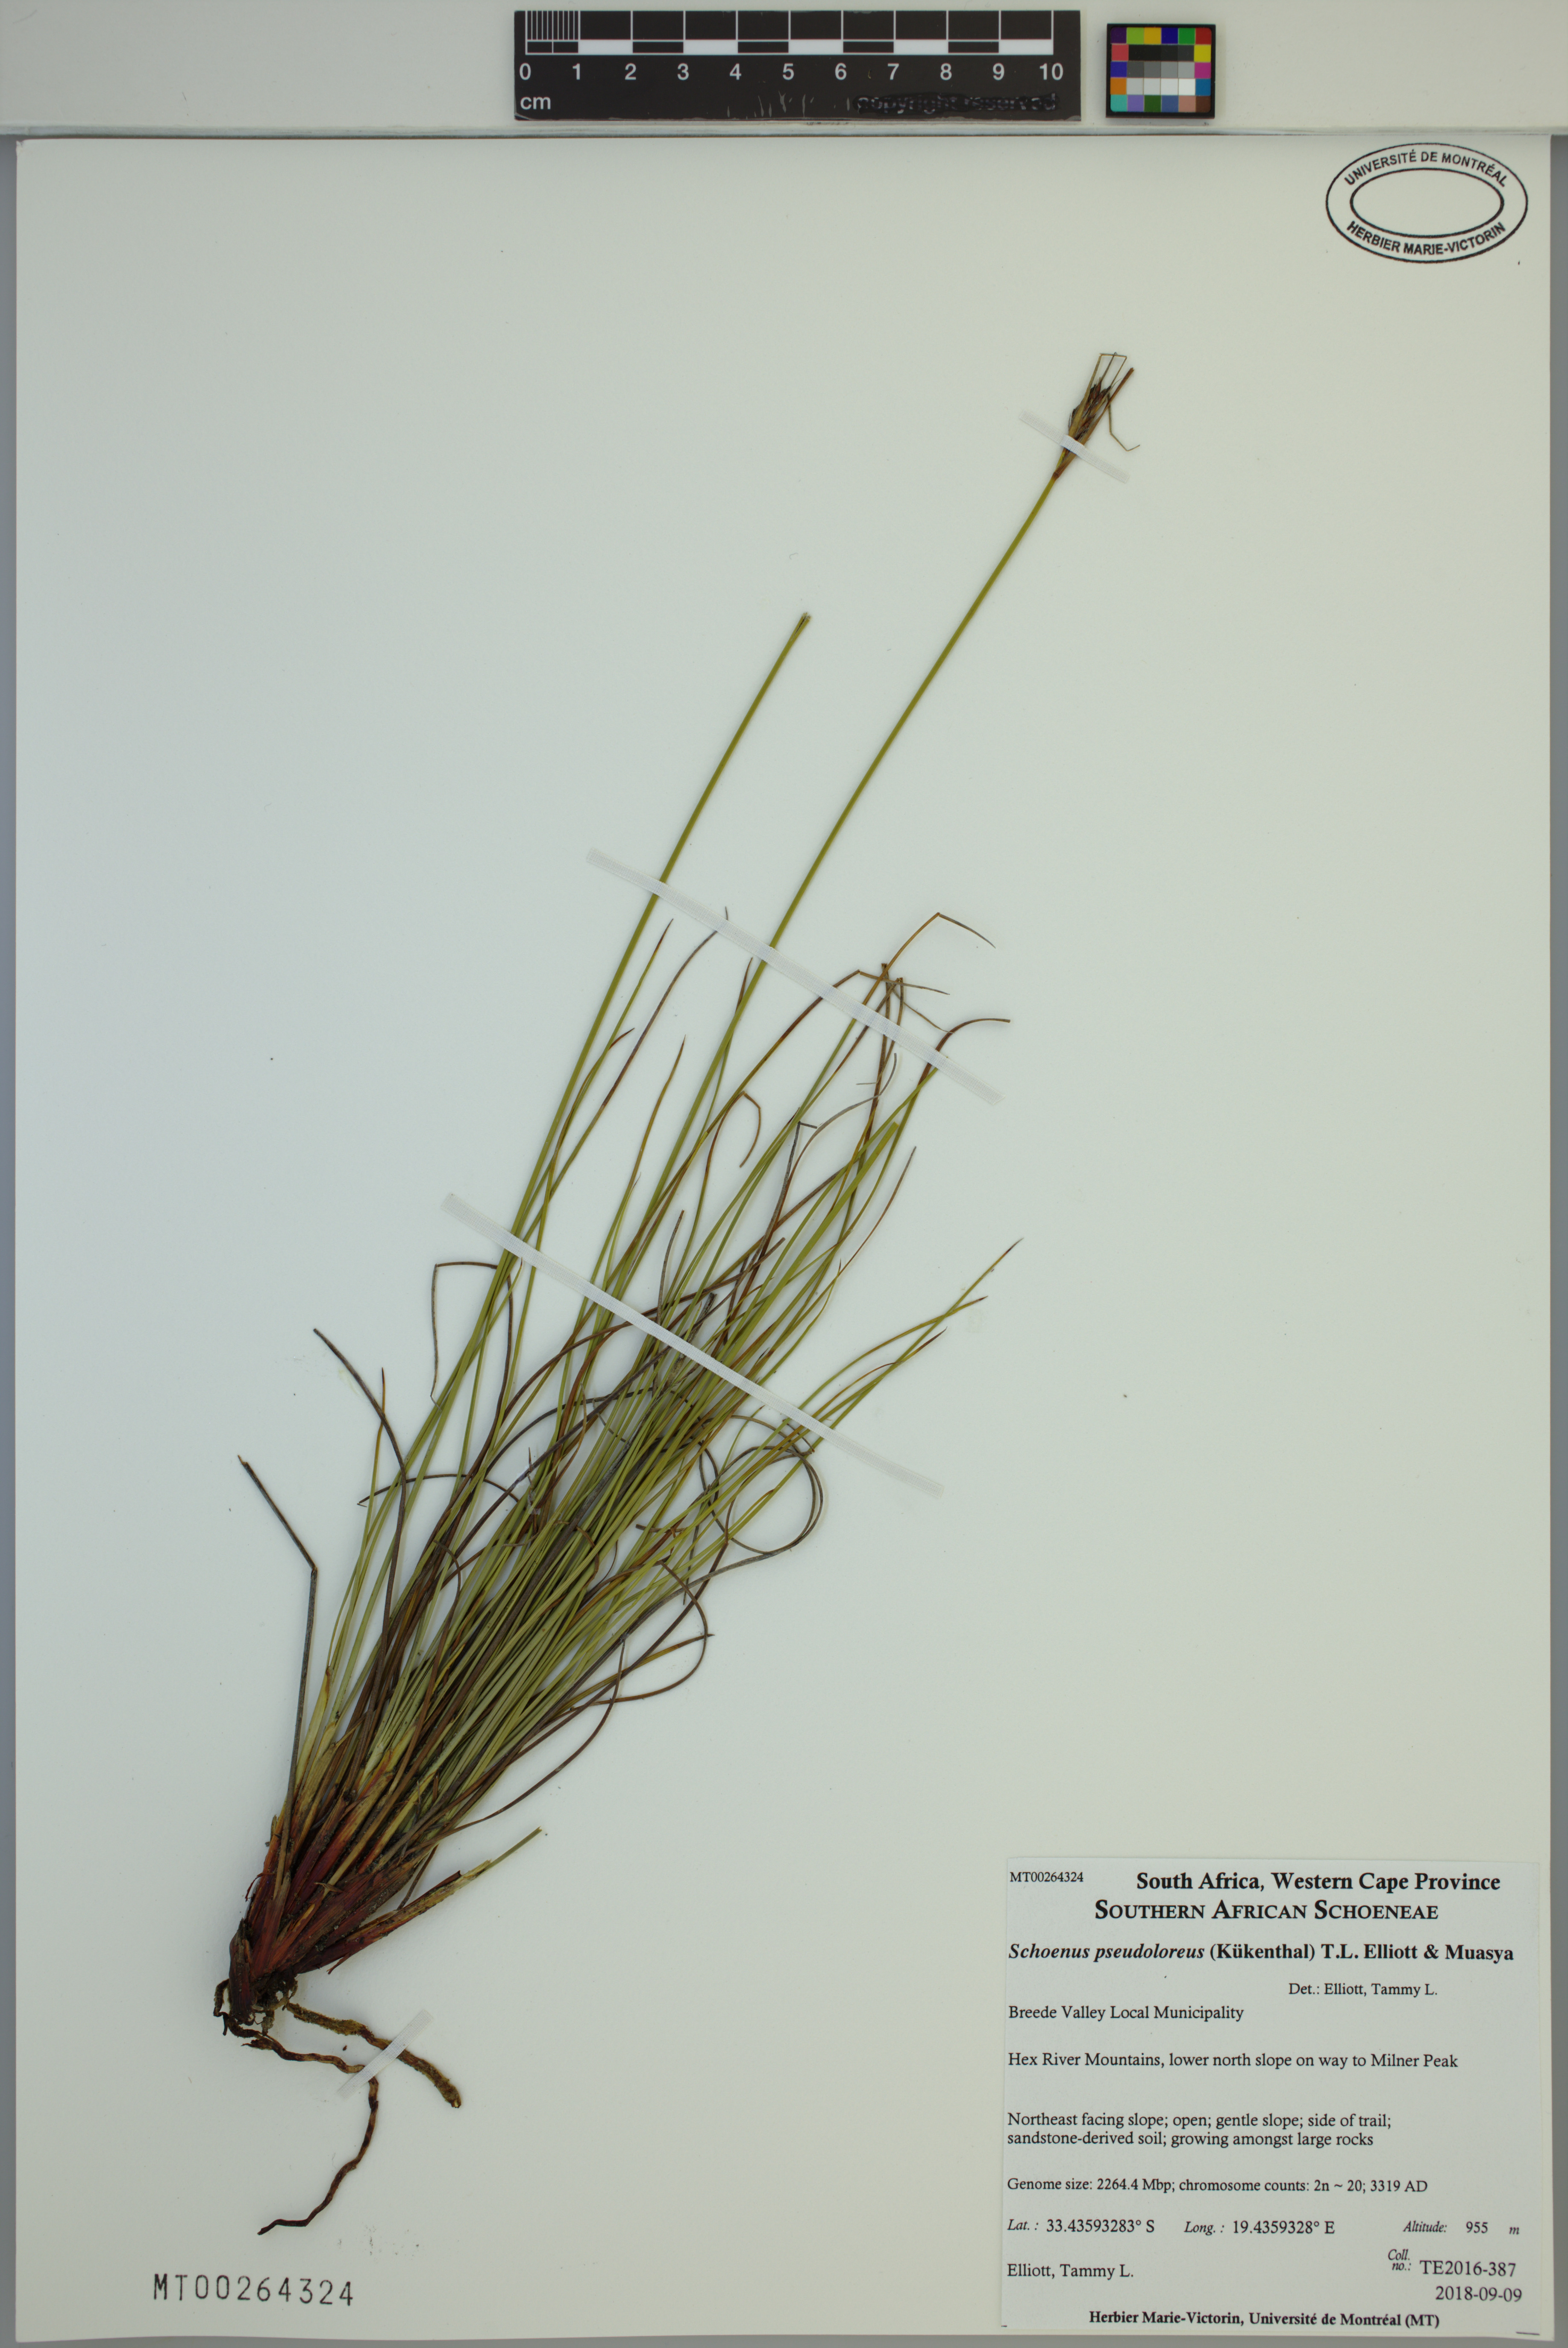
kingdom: Plantae
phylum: Tracheophyta
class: Liliopsida
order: Poales
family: Cyperaceae
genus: Schoenus
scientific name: Schoenus pseudoloreus
